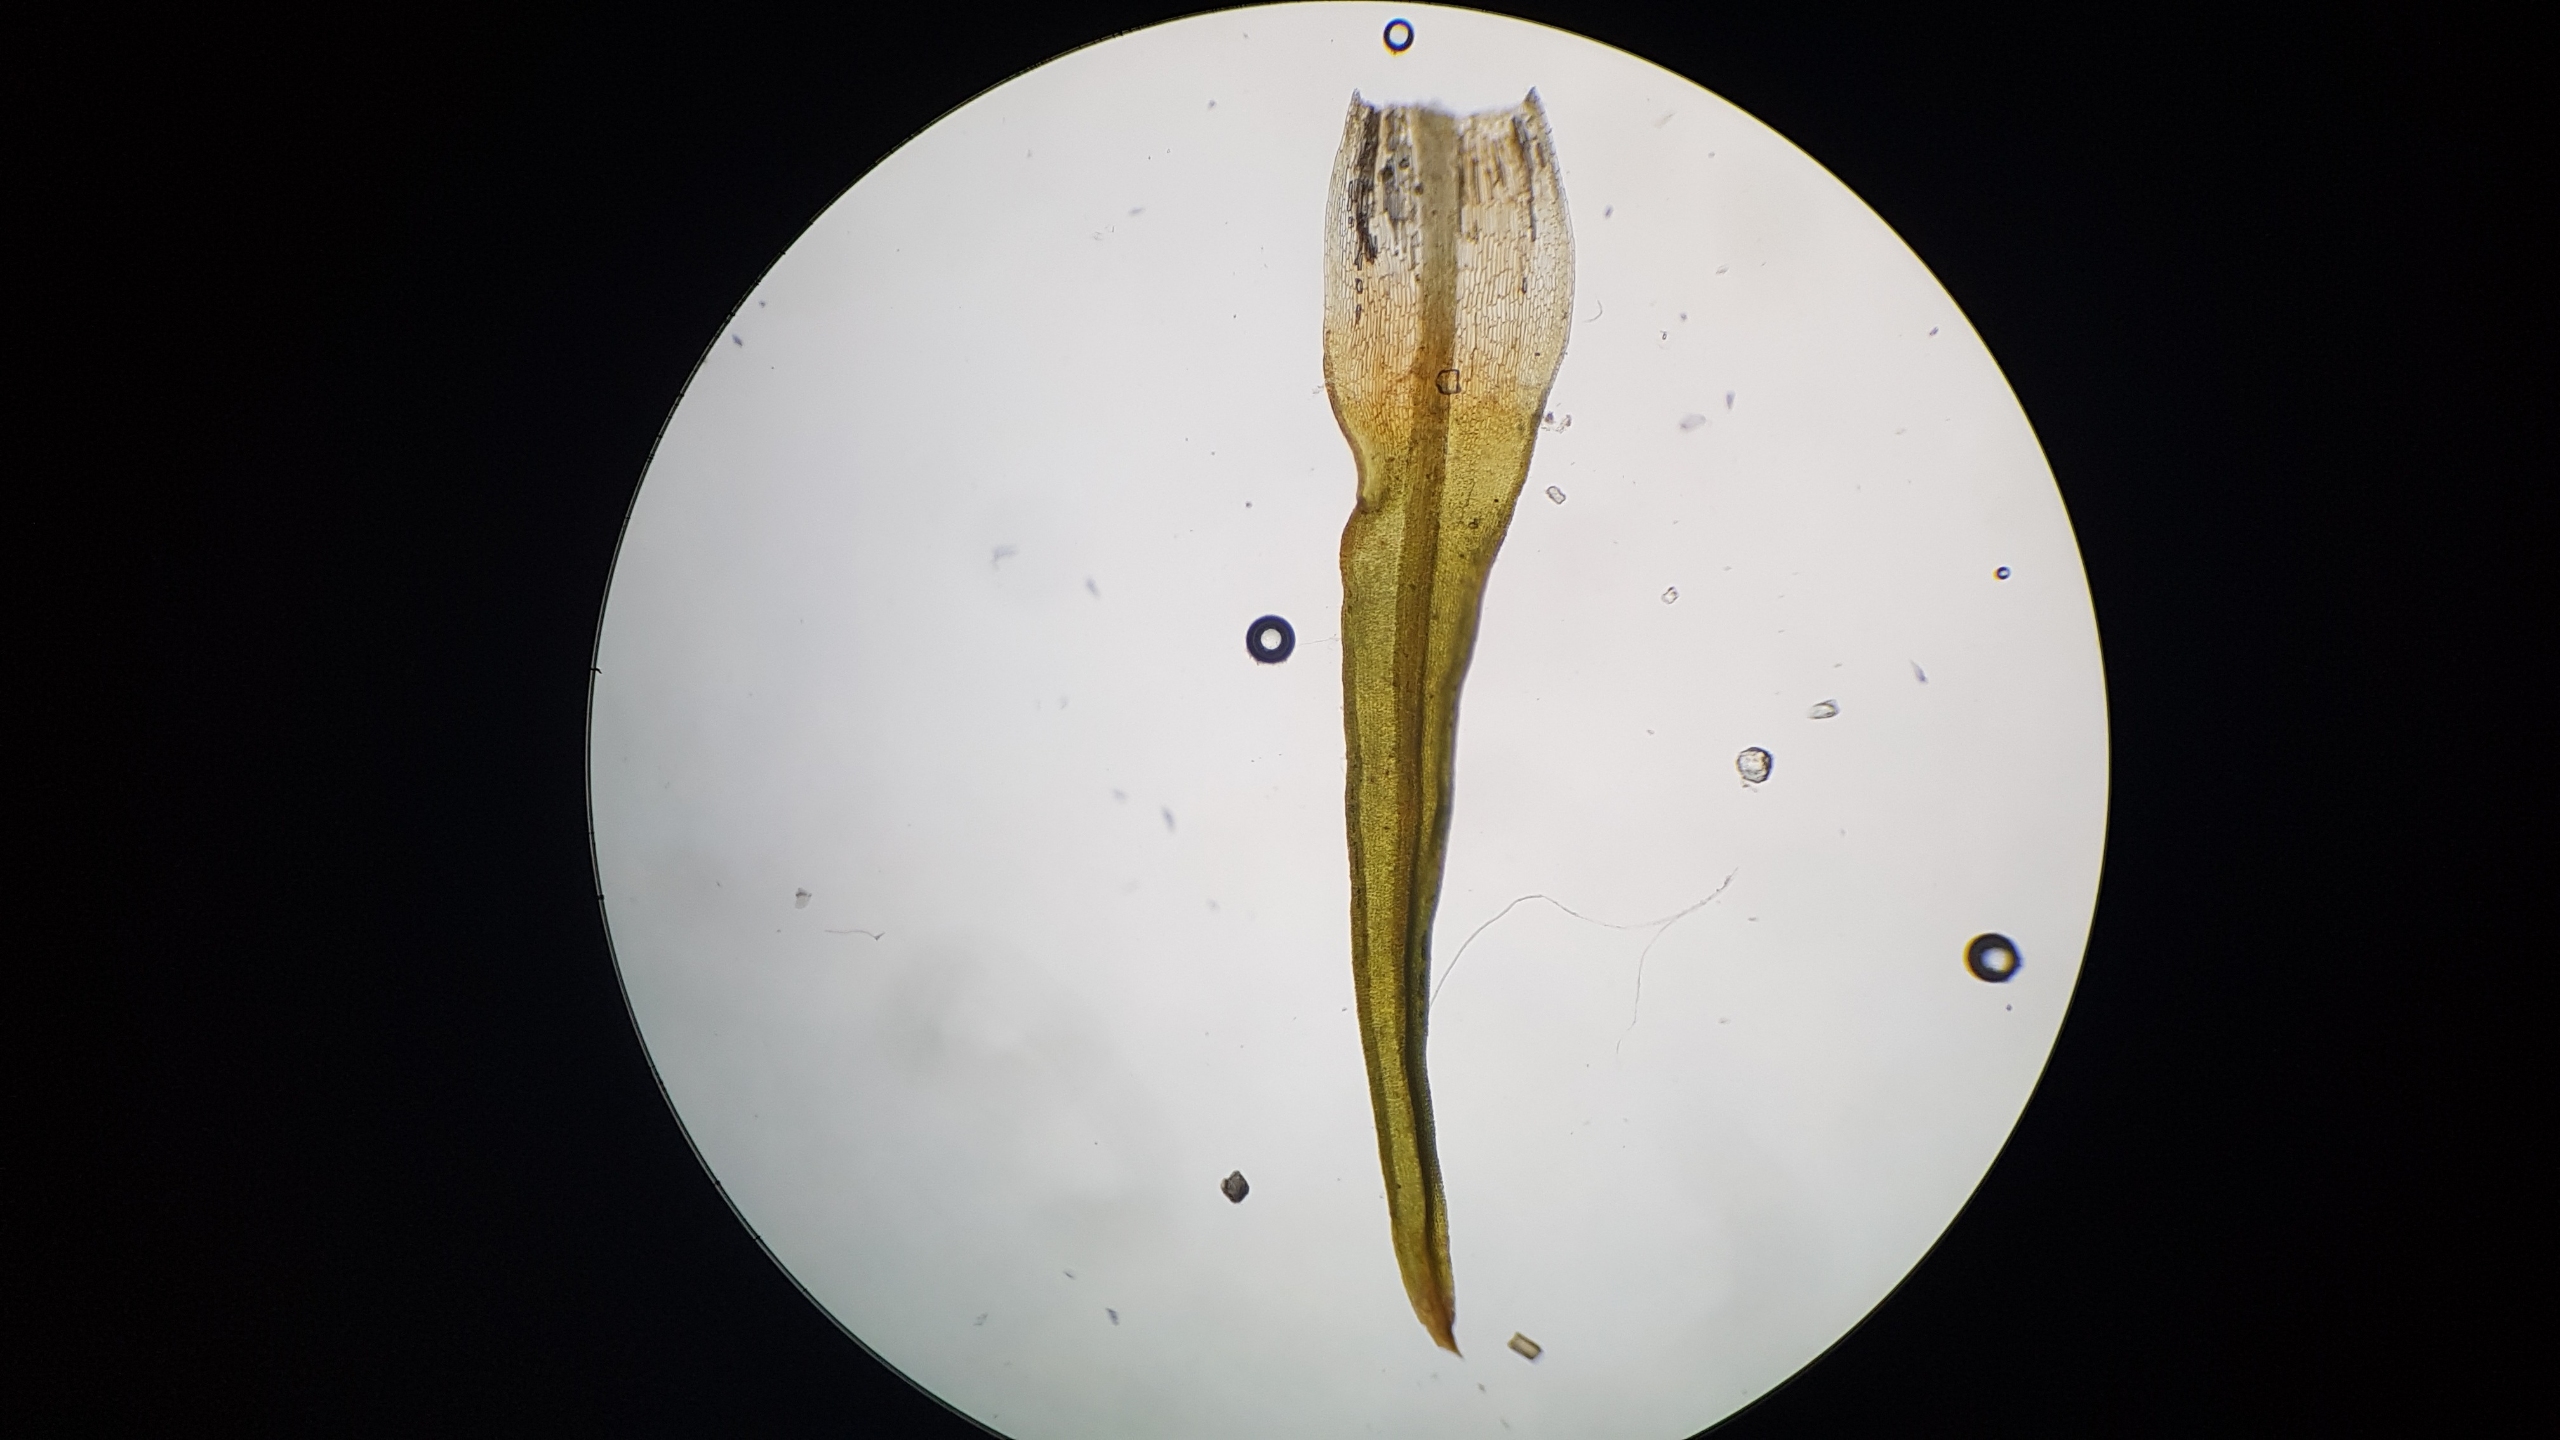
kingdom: Plantae
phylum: Bryophyta
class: Bryopsida
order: Pottiales
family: Pottiaceae
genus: Bryoerythrophyllum
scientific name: Bryoerythrophyllum recurvirostrum
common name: Rød gammelblad
